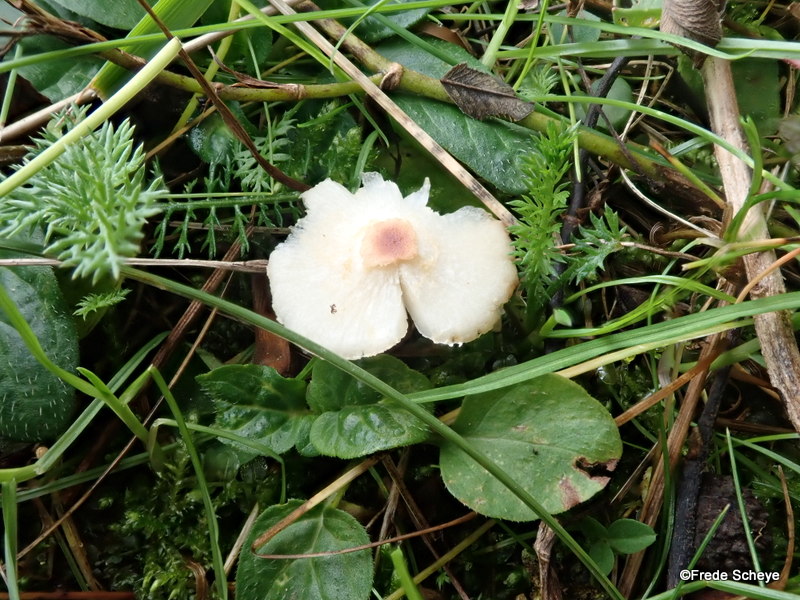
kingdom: Fungi
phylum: Basidiomycota
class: Agaricomycetes
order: Agaricales
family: Agaricaceae
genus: Lepiota
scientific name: Lepiota cristata
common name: stinkende parasolhat
